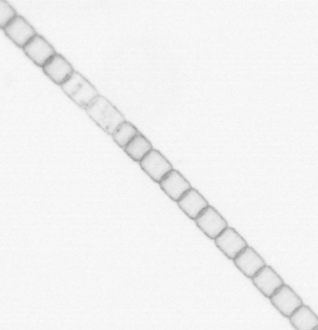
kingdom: Chromista
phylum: Ochrophyta
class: Bacillariophyceae
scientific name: Bacillariophyceae
